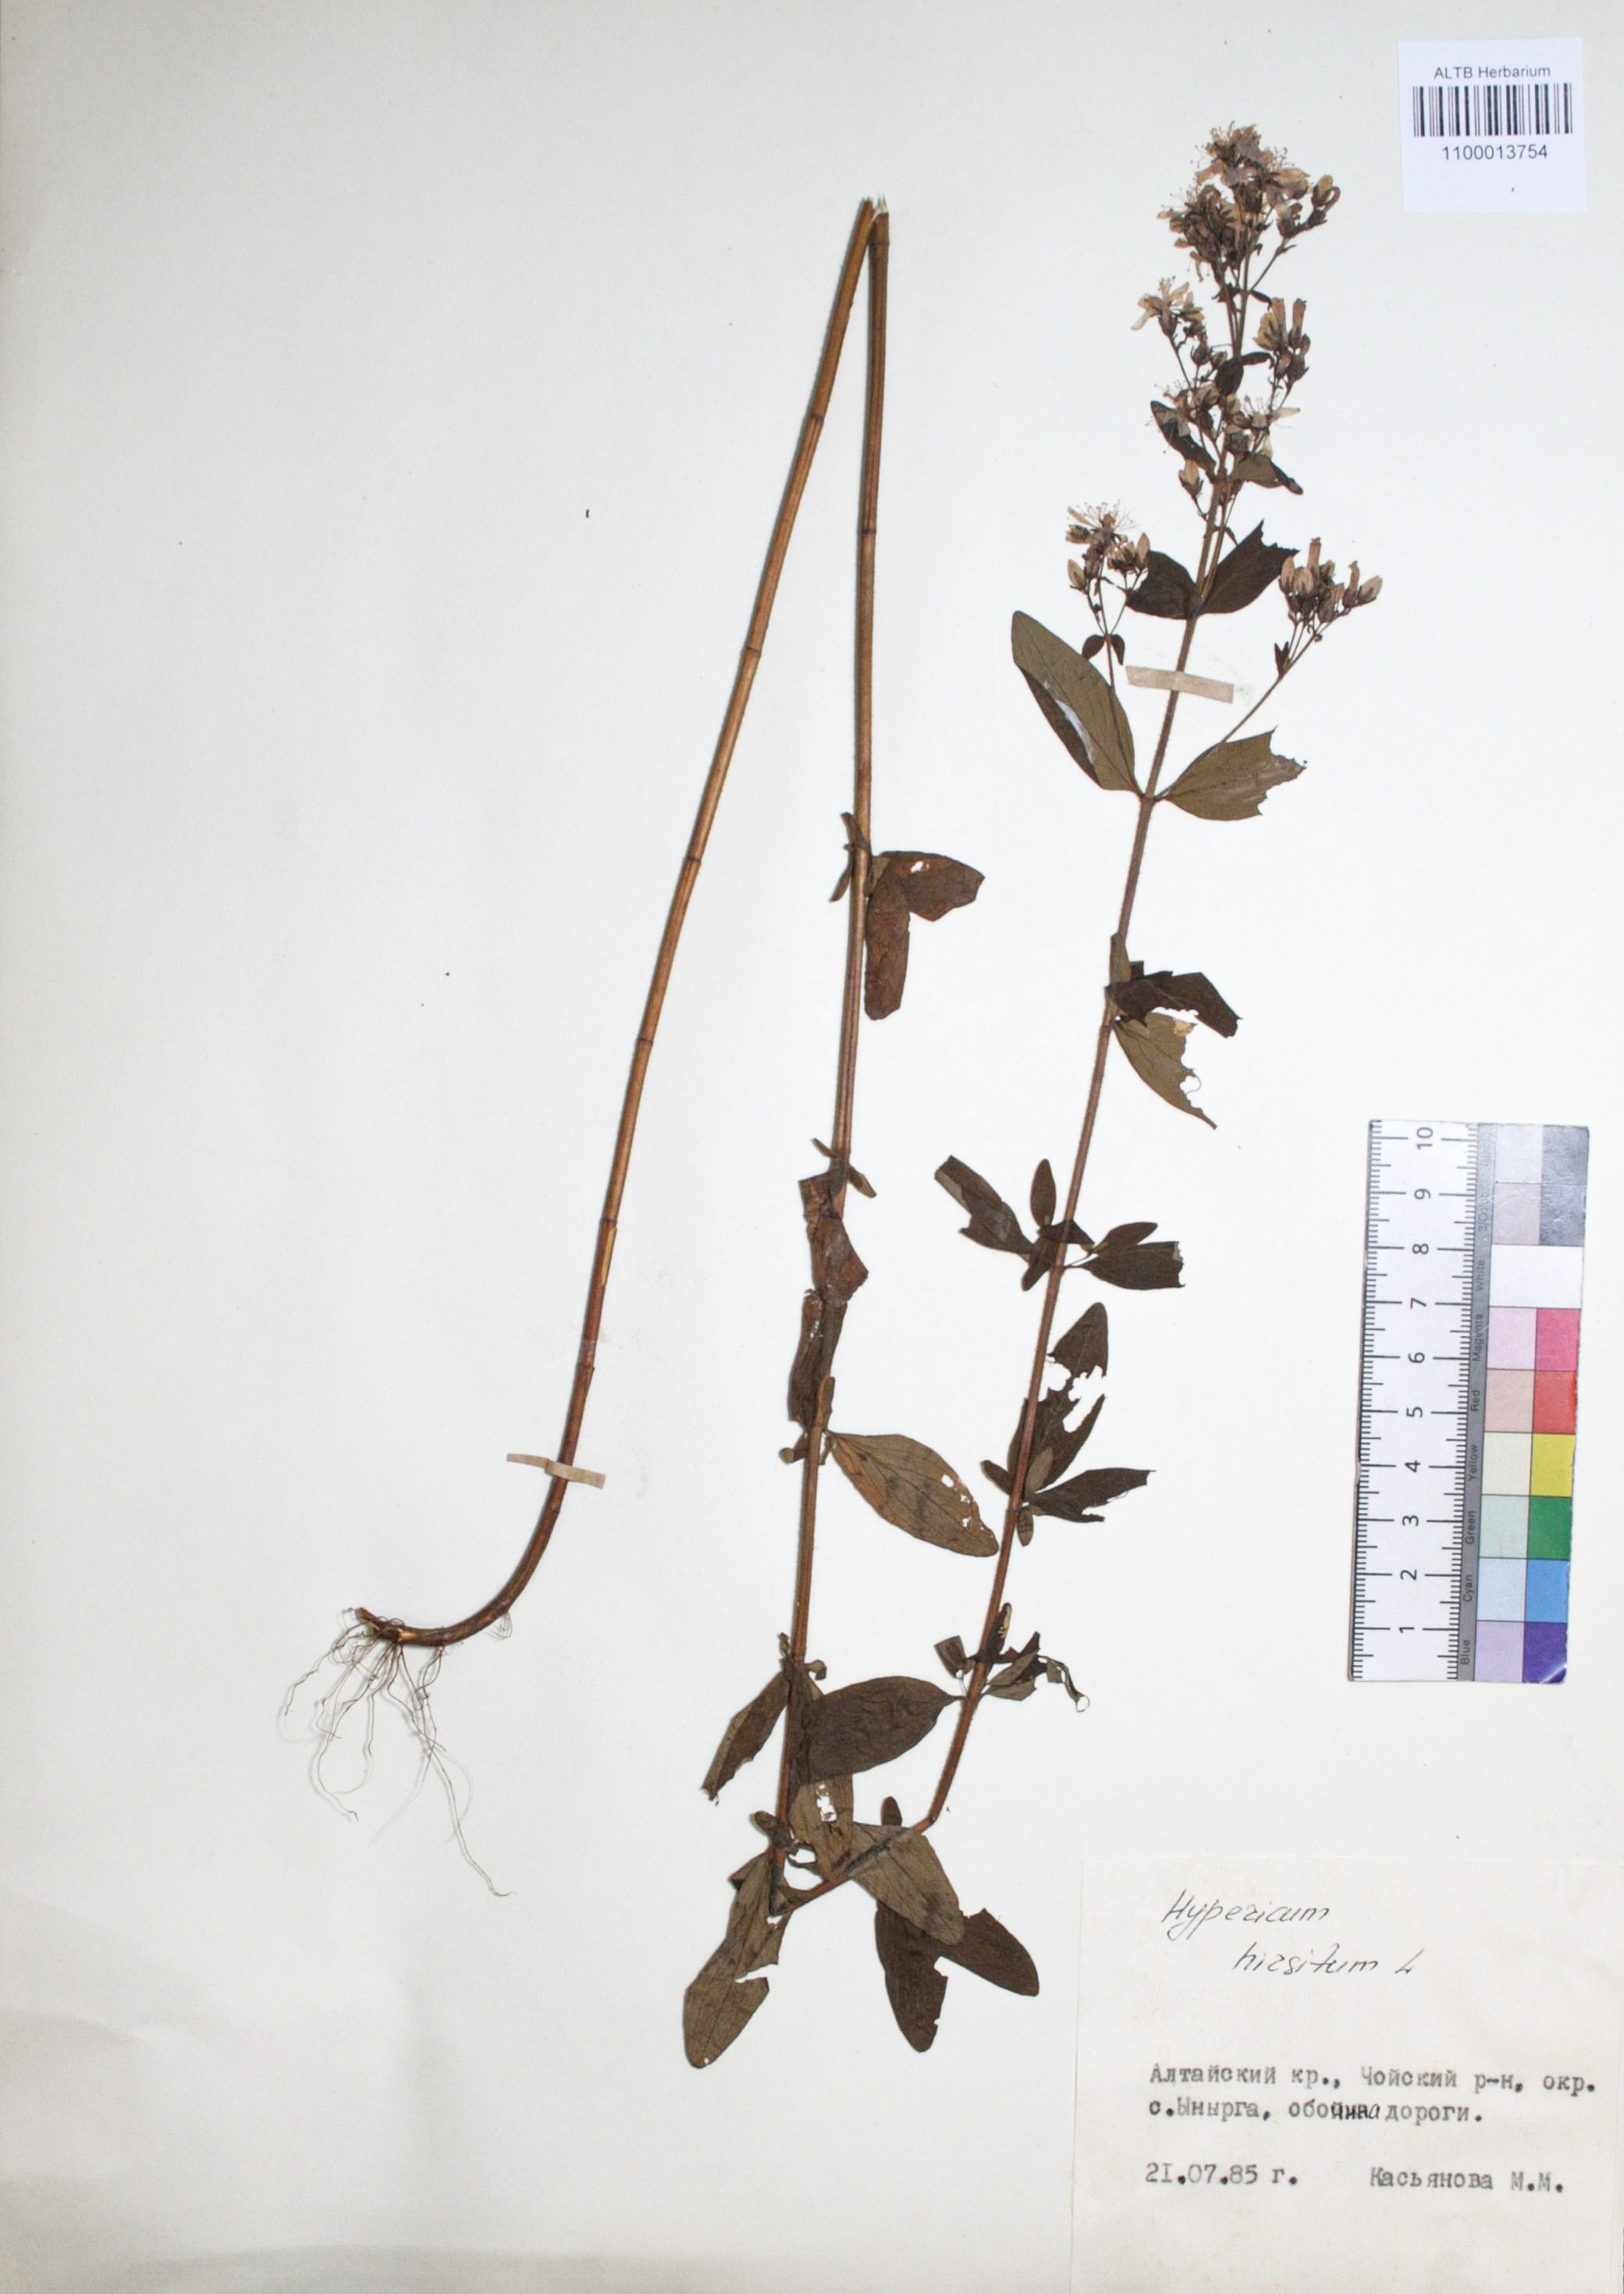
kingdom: Plantae
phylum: Tracheophyta
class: Magnoliopsida
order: Malpighiales
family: Hypericaceae
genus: Hypericum
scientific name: Hypericum hirsutum
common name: Hairy st. john's-wort
